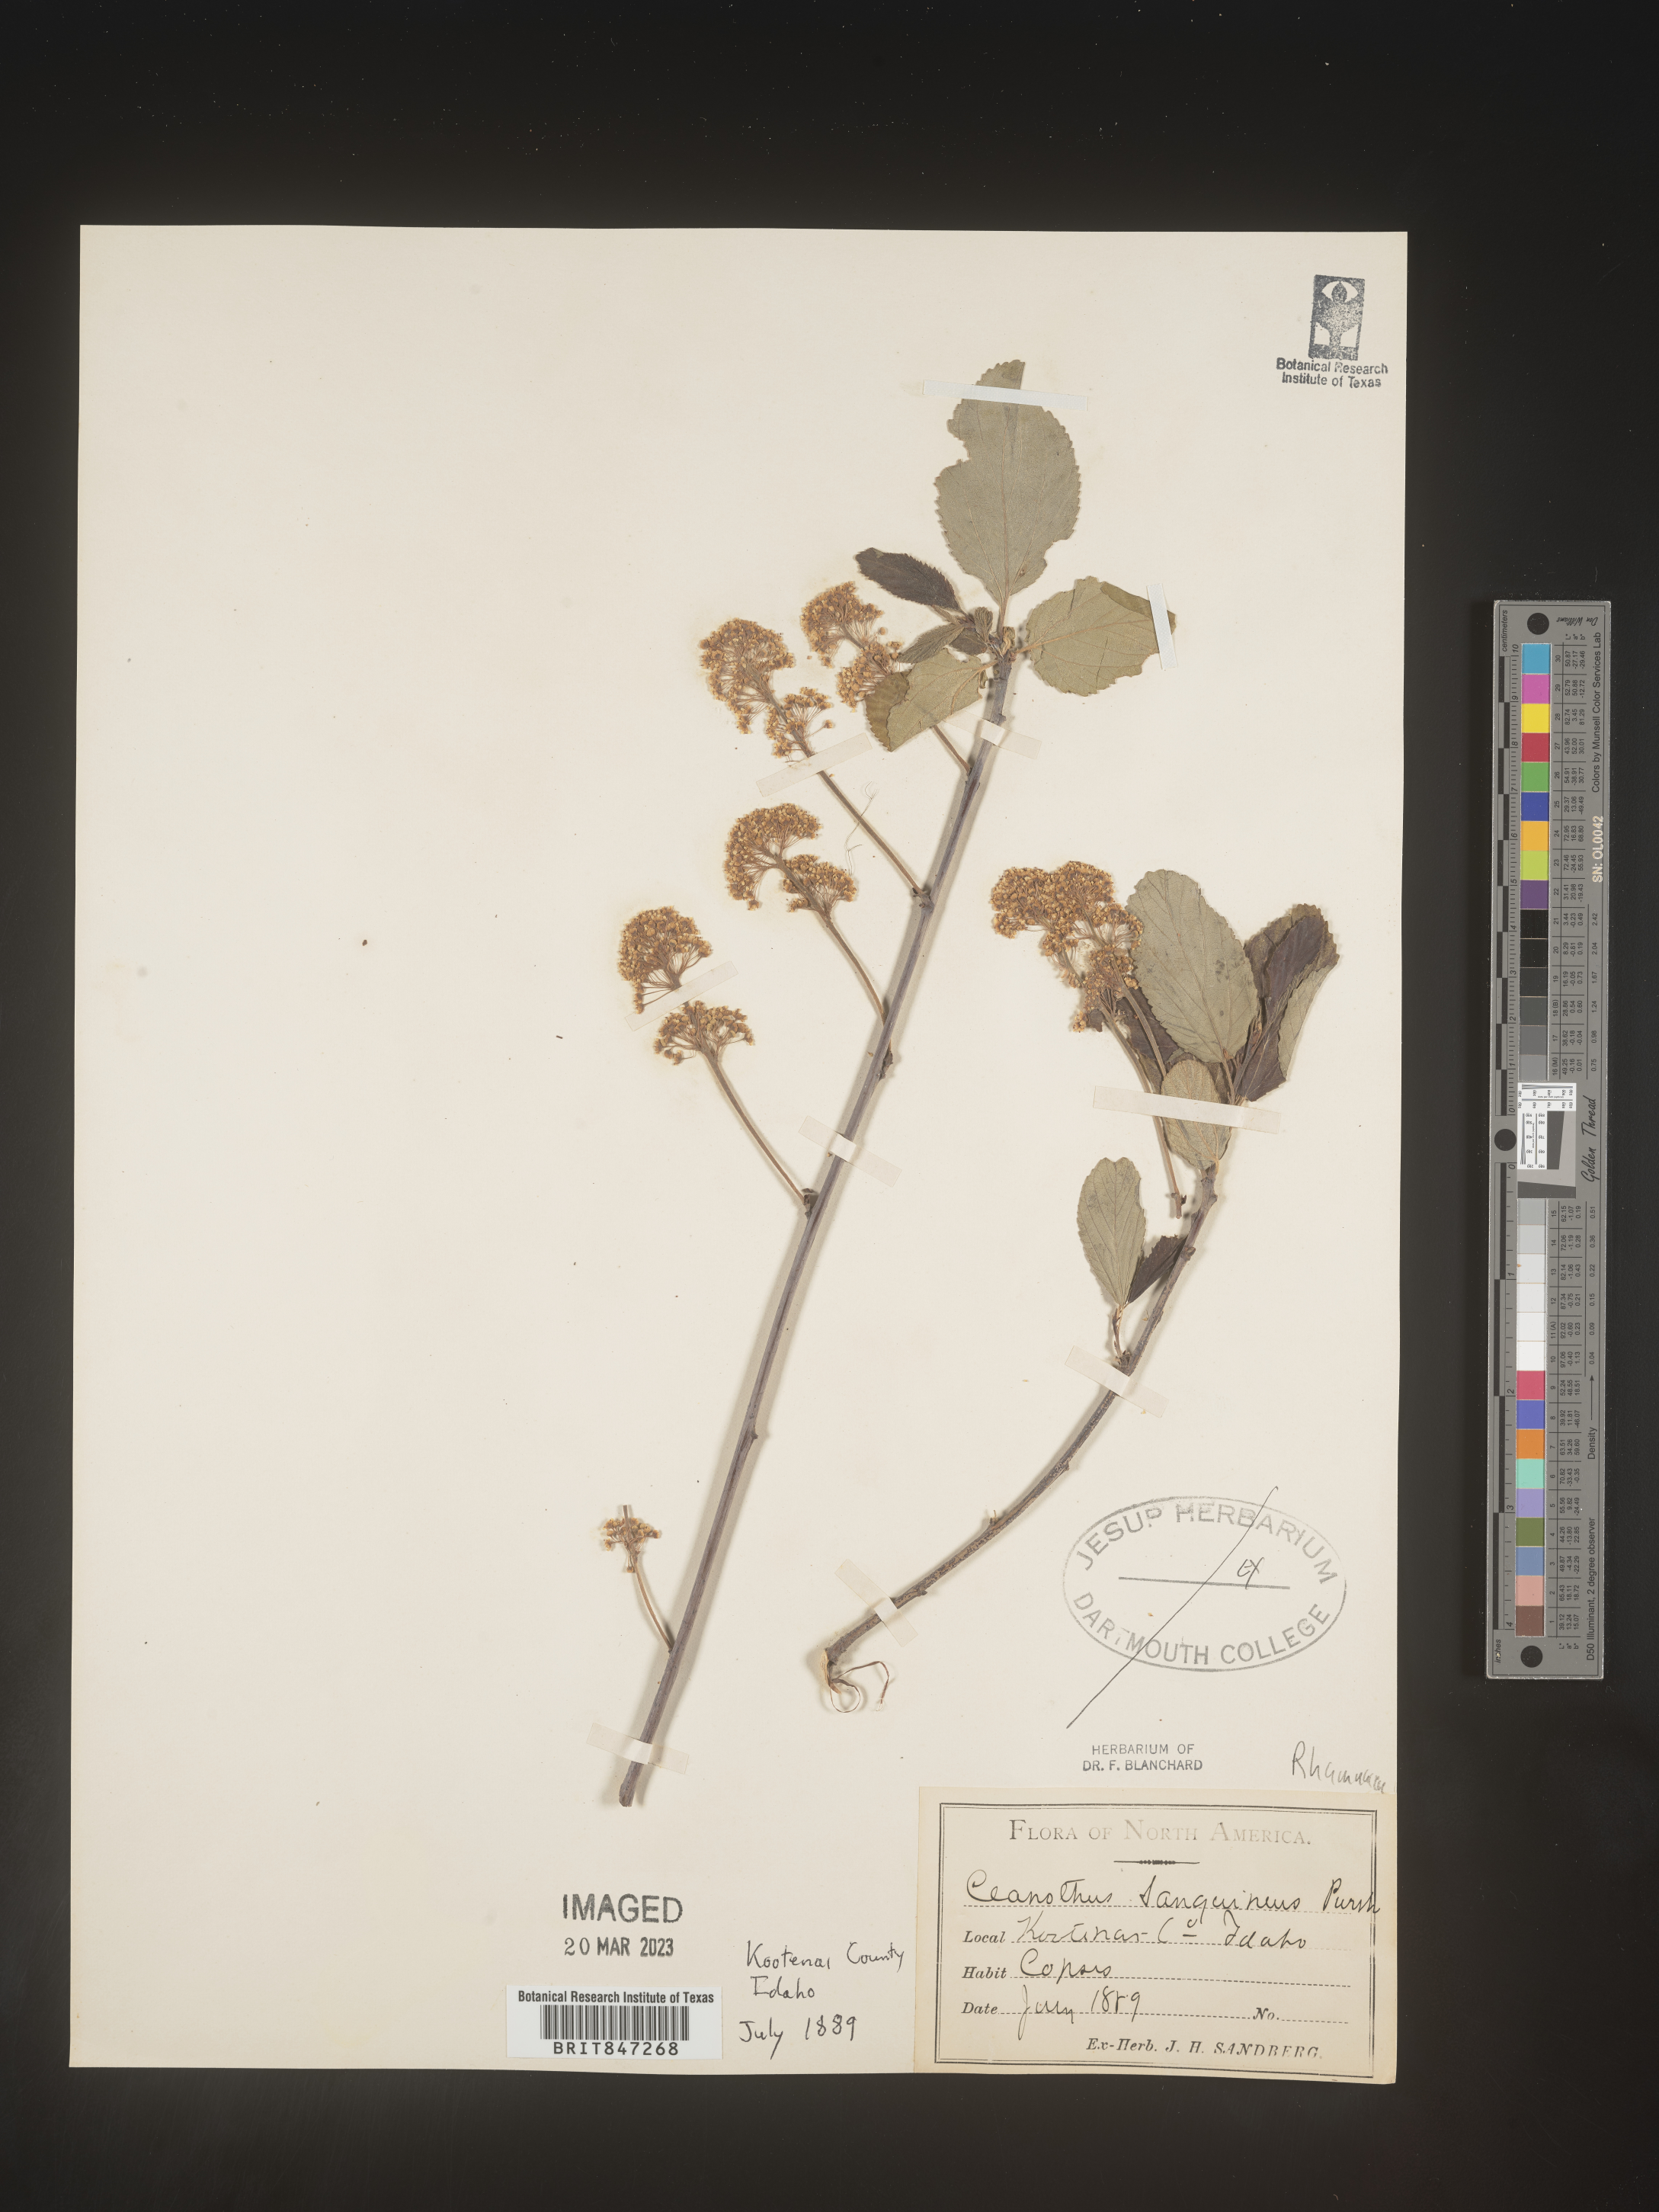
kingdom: Plantae
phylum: Tracheophyta
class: Magnoliopsida
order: Rosales
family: Rhamnaceae
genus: Ceanothus
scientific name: Ceanothus
